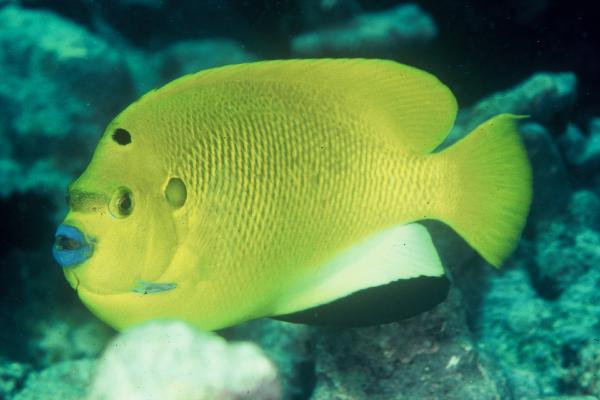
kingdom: Animalia
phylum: Chordata
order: Perciformes
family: Pomacanthidae
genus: Apolemichthys
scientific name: Apolemichthys trimaculatus
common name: Threespot angelfish
